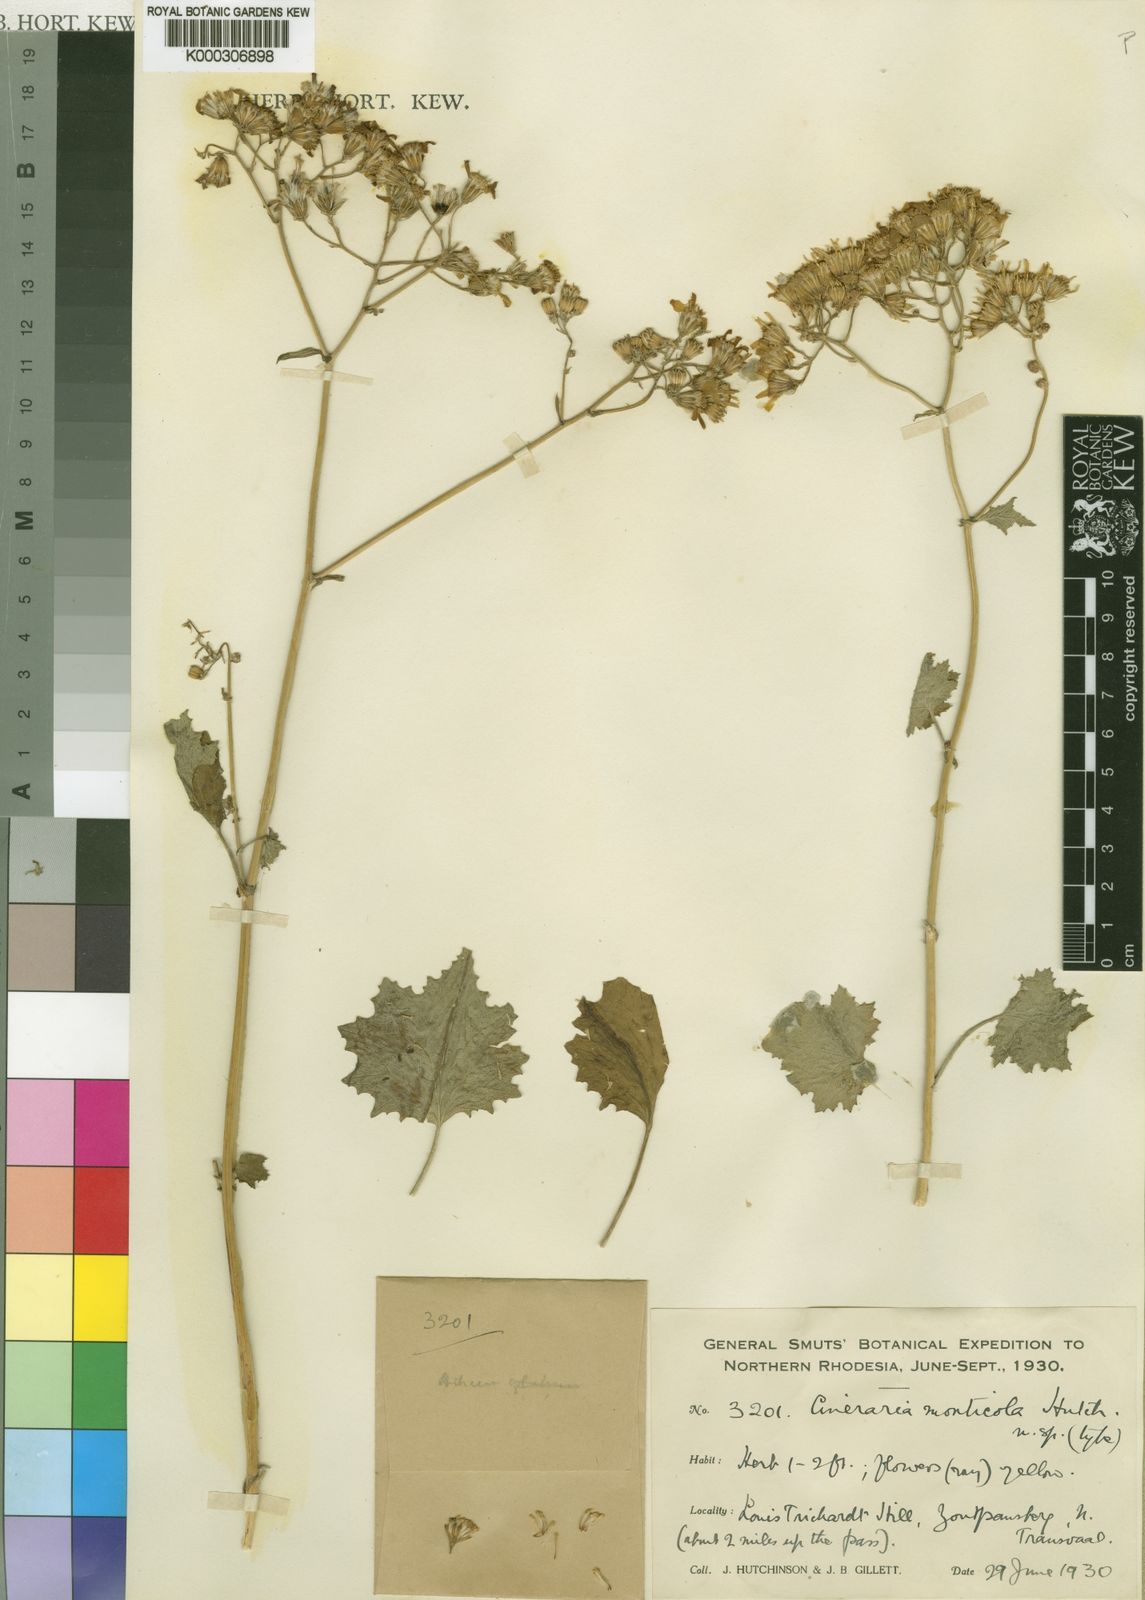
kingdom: Plantae
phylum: Tracheophyta
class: Magnoliopsida
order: Asterales
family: Asteraceae
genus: Cineraria
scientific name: Cineraria deltoidea
